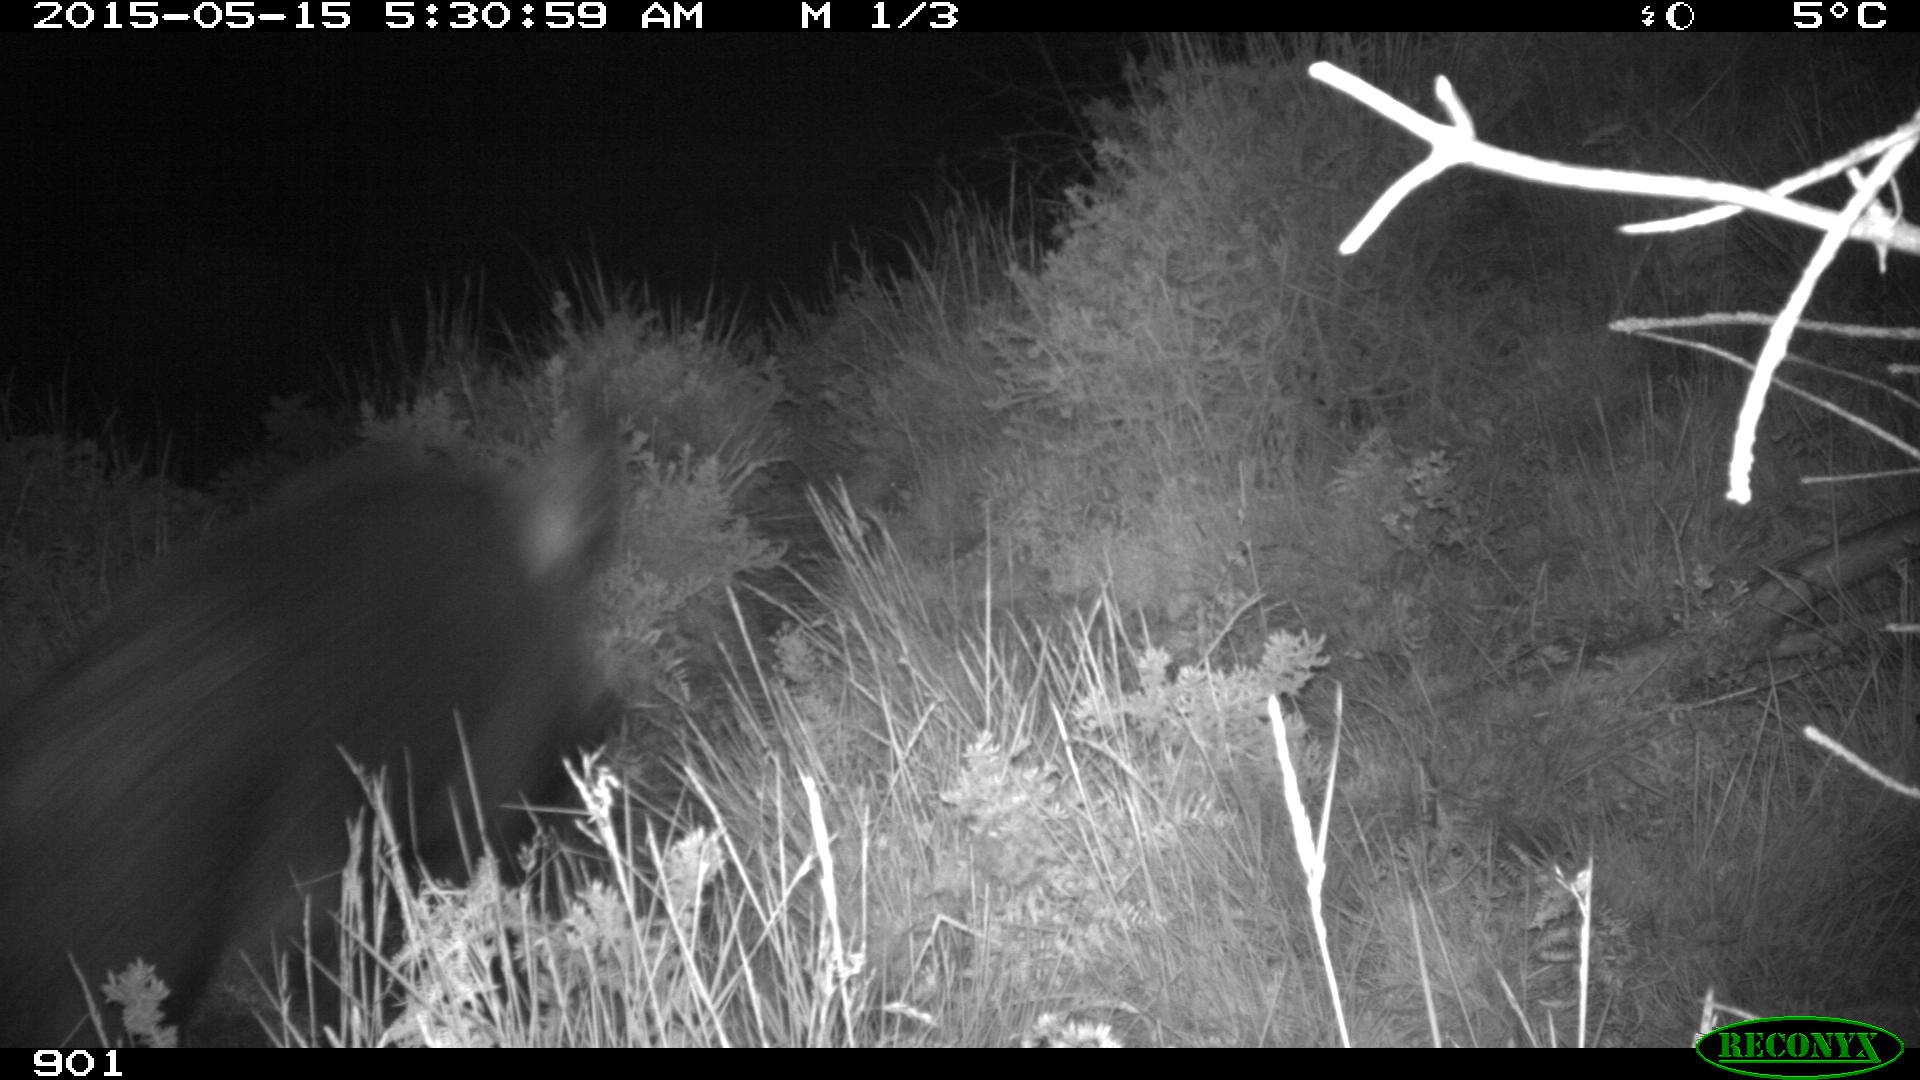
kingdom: Animalia
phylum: Chordata
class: Mammalia
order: Artiodactyla
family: Suidae
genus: Sus
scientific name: Sus scrofa
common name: Wild boar
